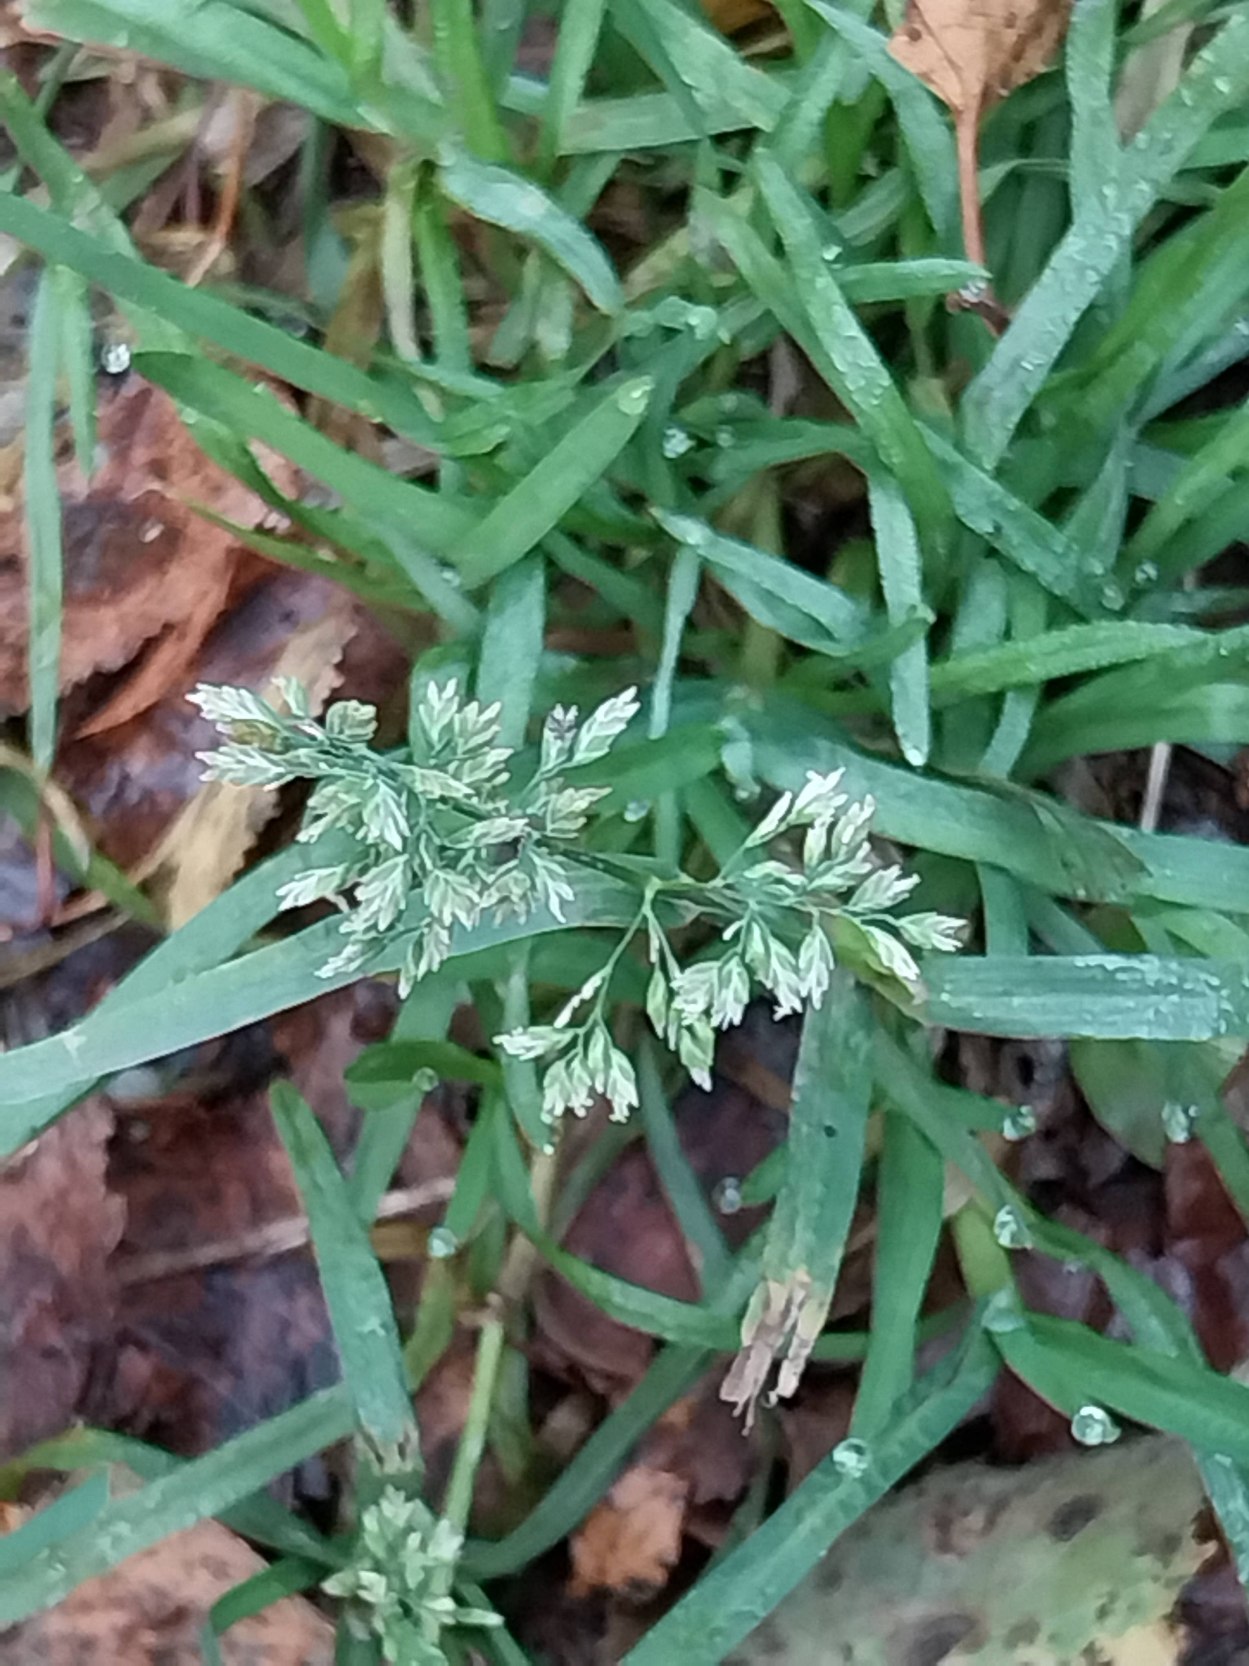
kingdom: Plantae
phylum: Tracheophyta
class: Liliopsida
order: Poales
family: Poaceae
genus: Poa
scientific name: Poa annua
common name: Enårig rapgræs
